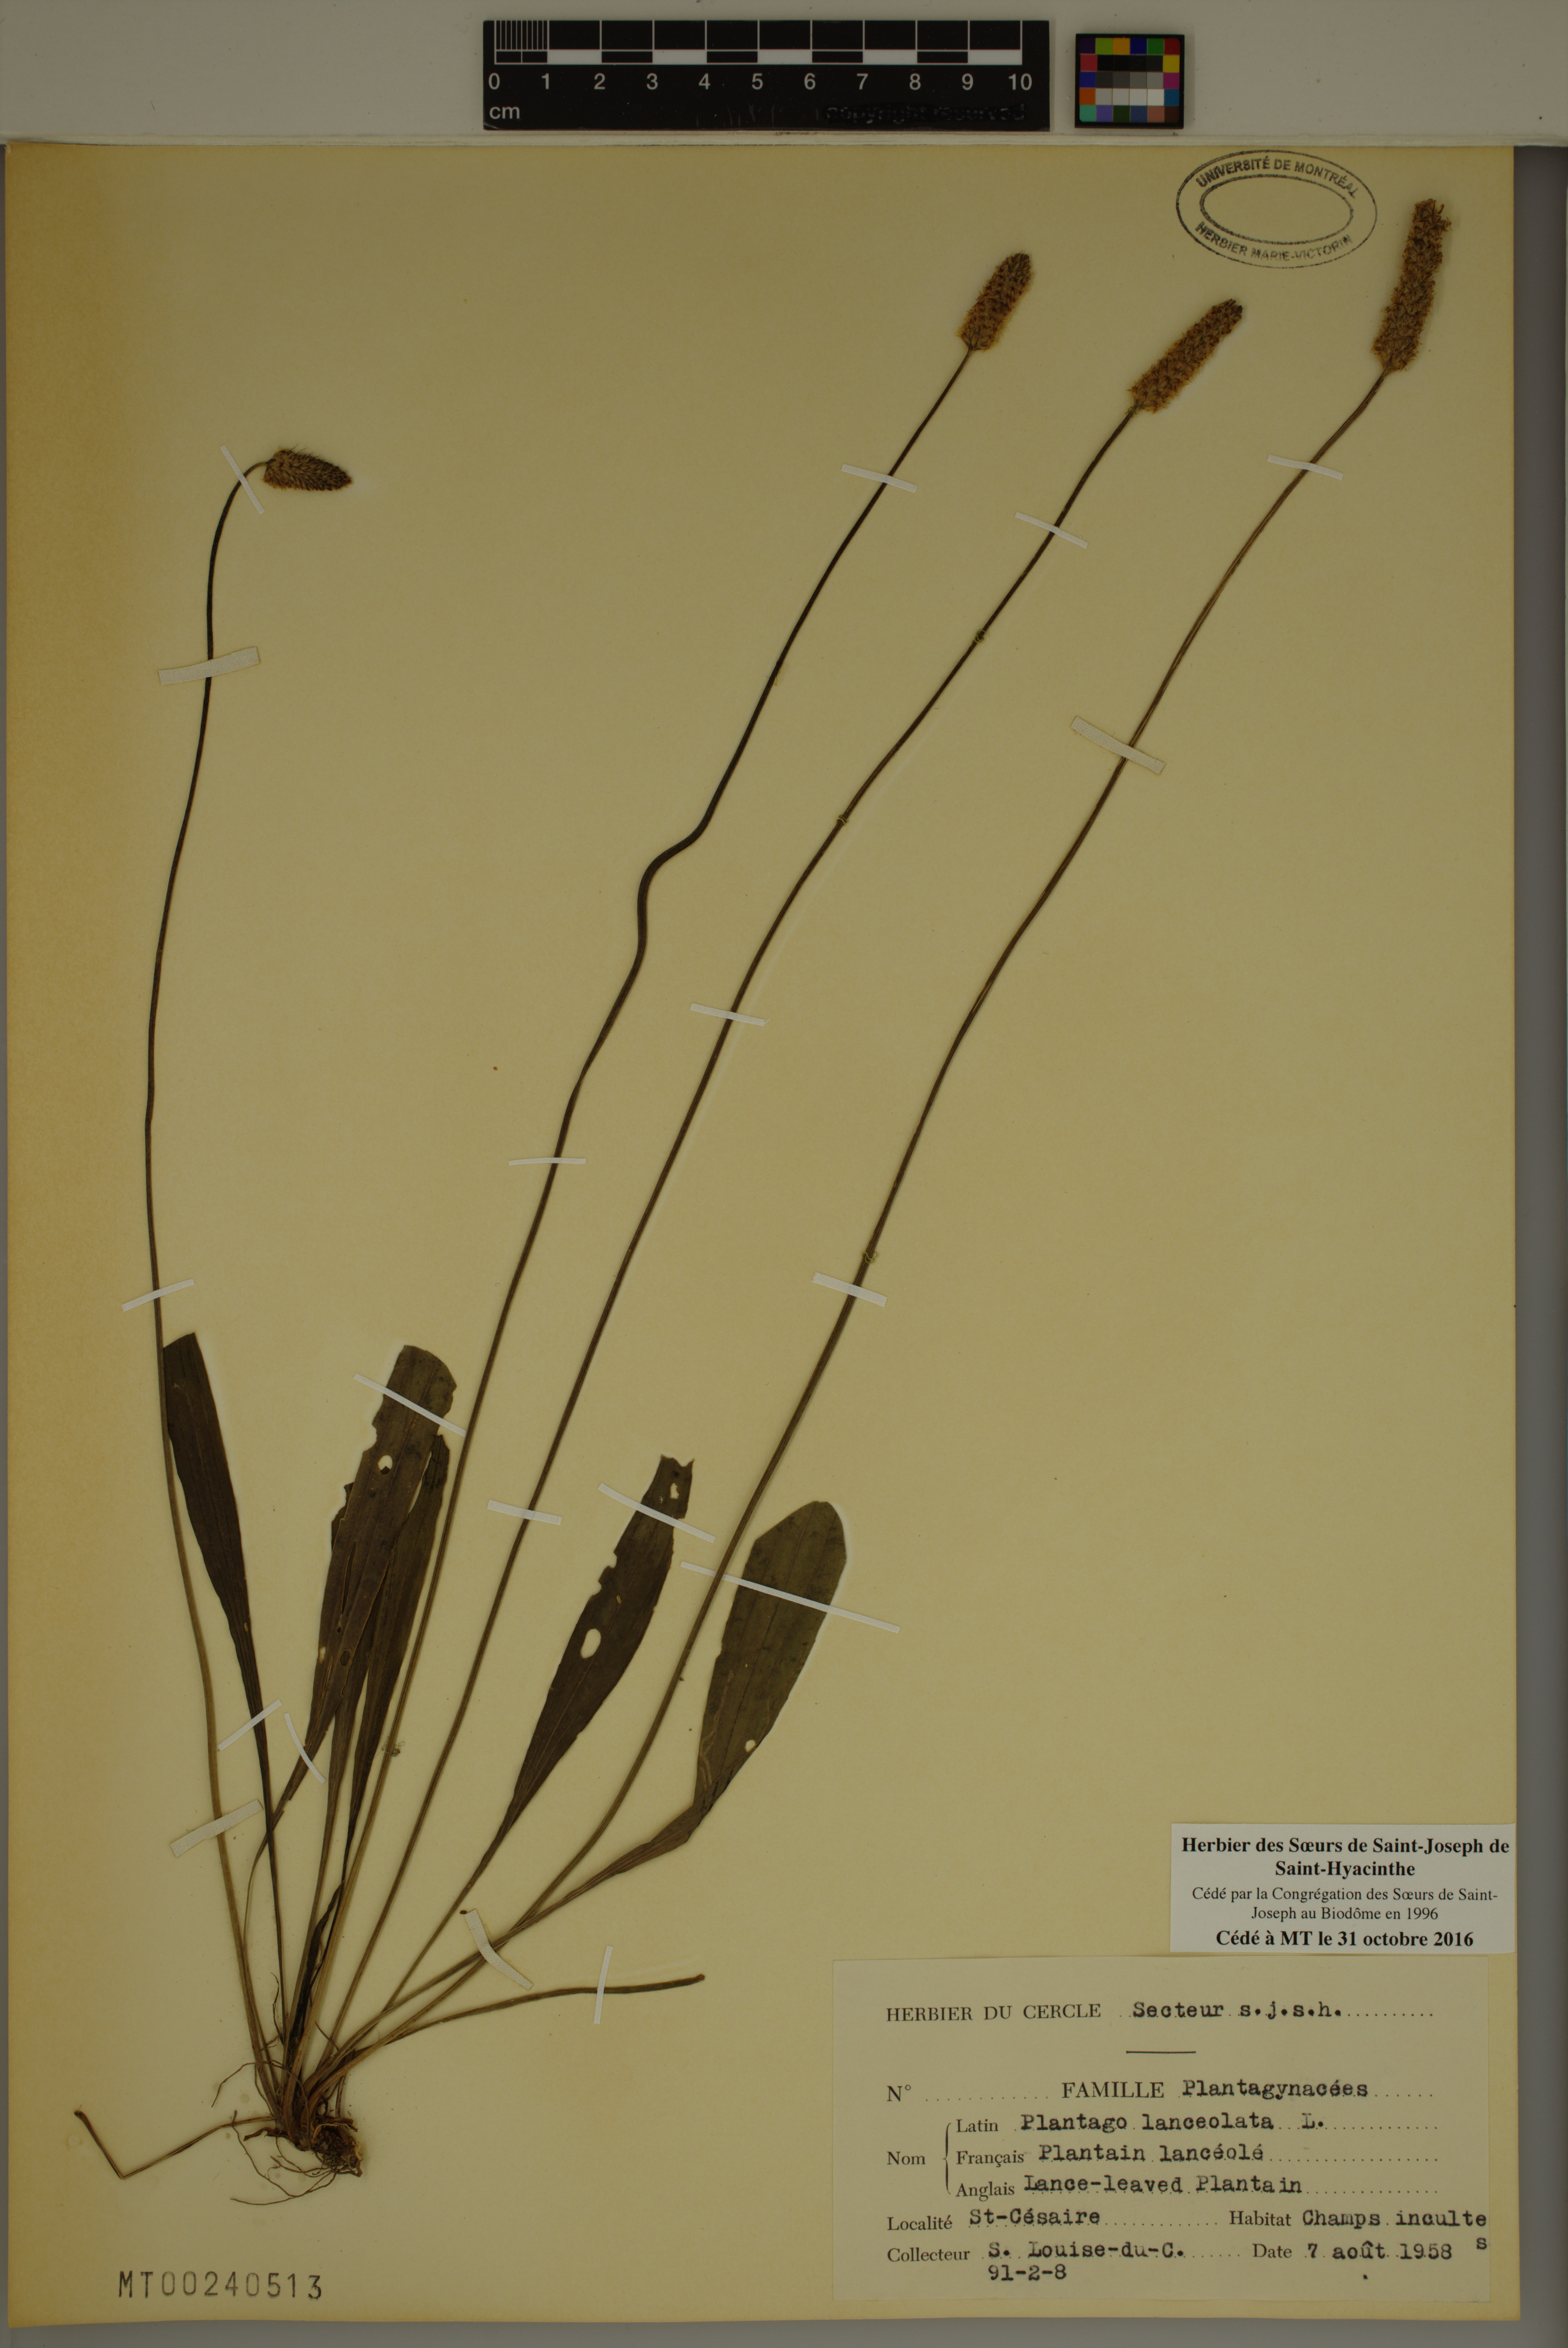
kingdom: Plantae
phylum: Tracheophyta
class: Magnoliopsida
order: Lamiales
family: Plantaginaceae
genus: Plantago
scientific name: Plantago lanceolata
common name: Ribwort plantain
